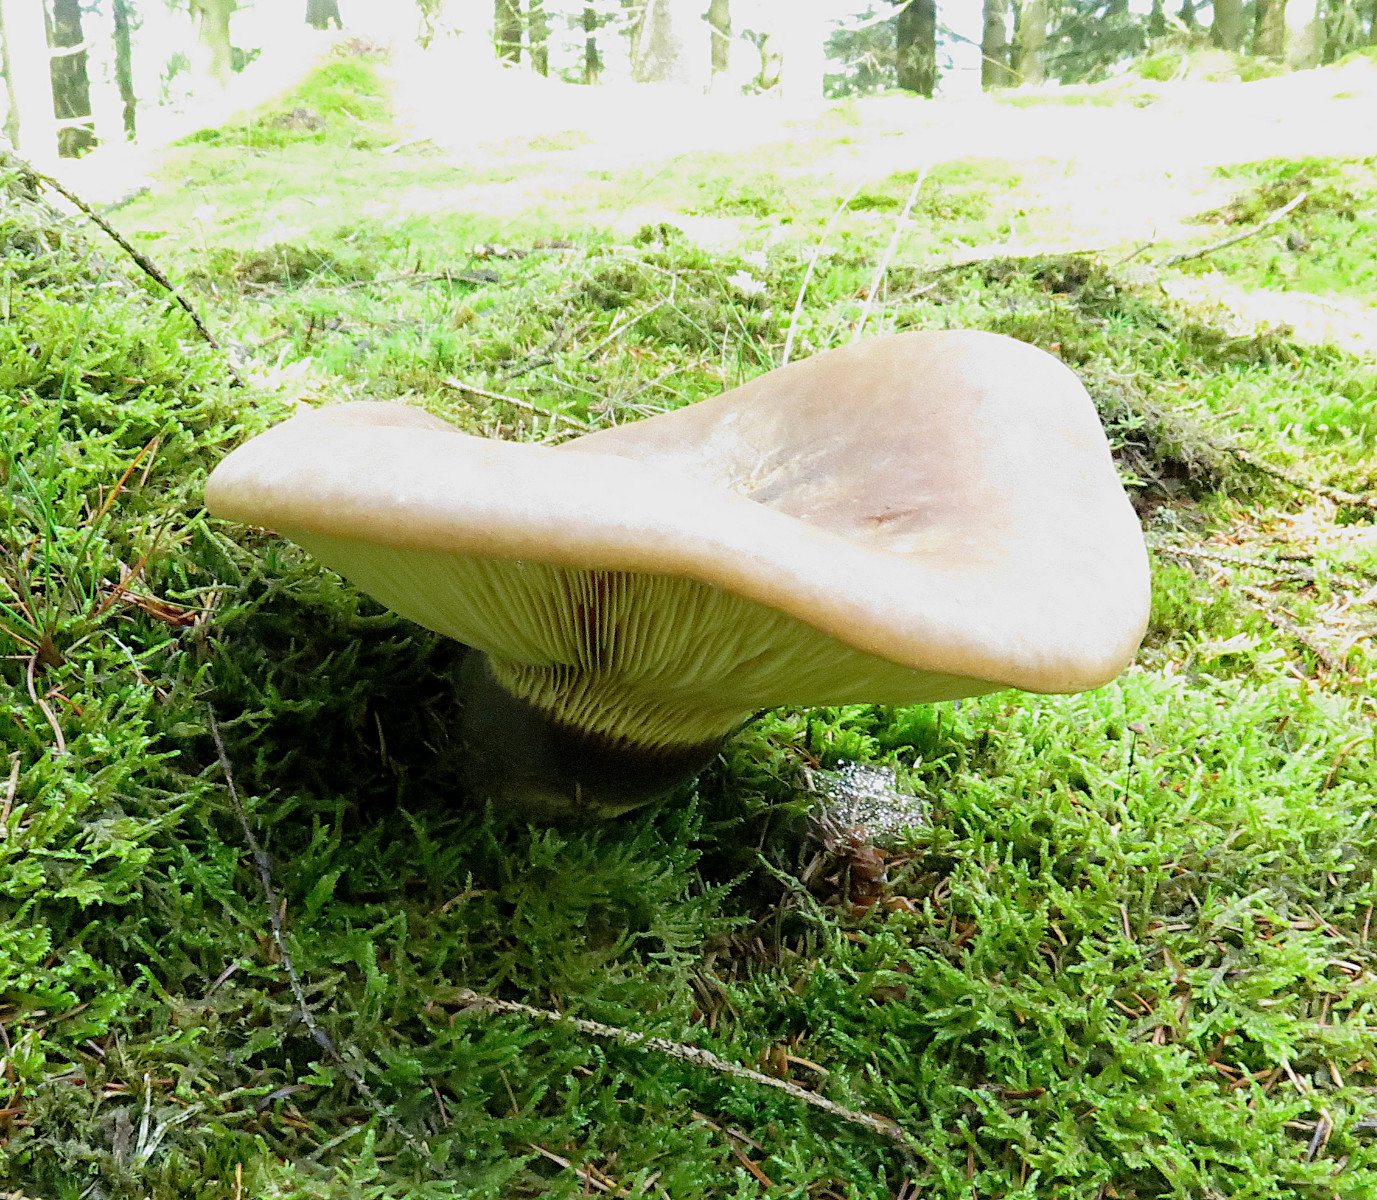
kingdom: Fungi
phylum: Basidiomycota
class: Agaricomycetes
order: Boletales
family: Tapinellaceae
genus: Tapinella
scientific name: Tapinella atrotomentosa
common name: sortfiltet viftesvamp
